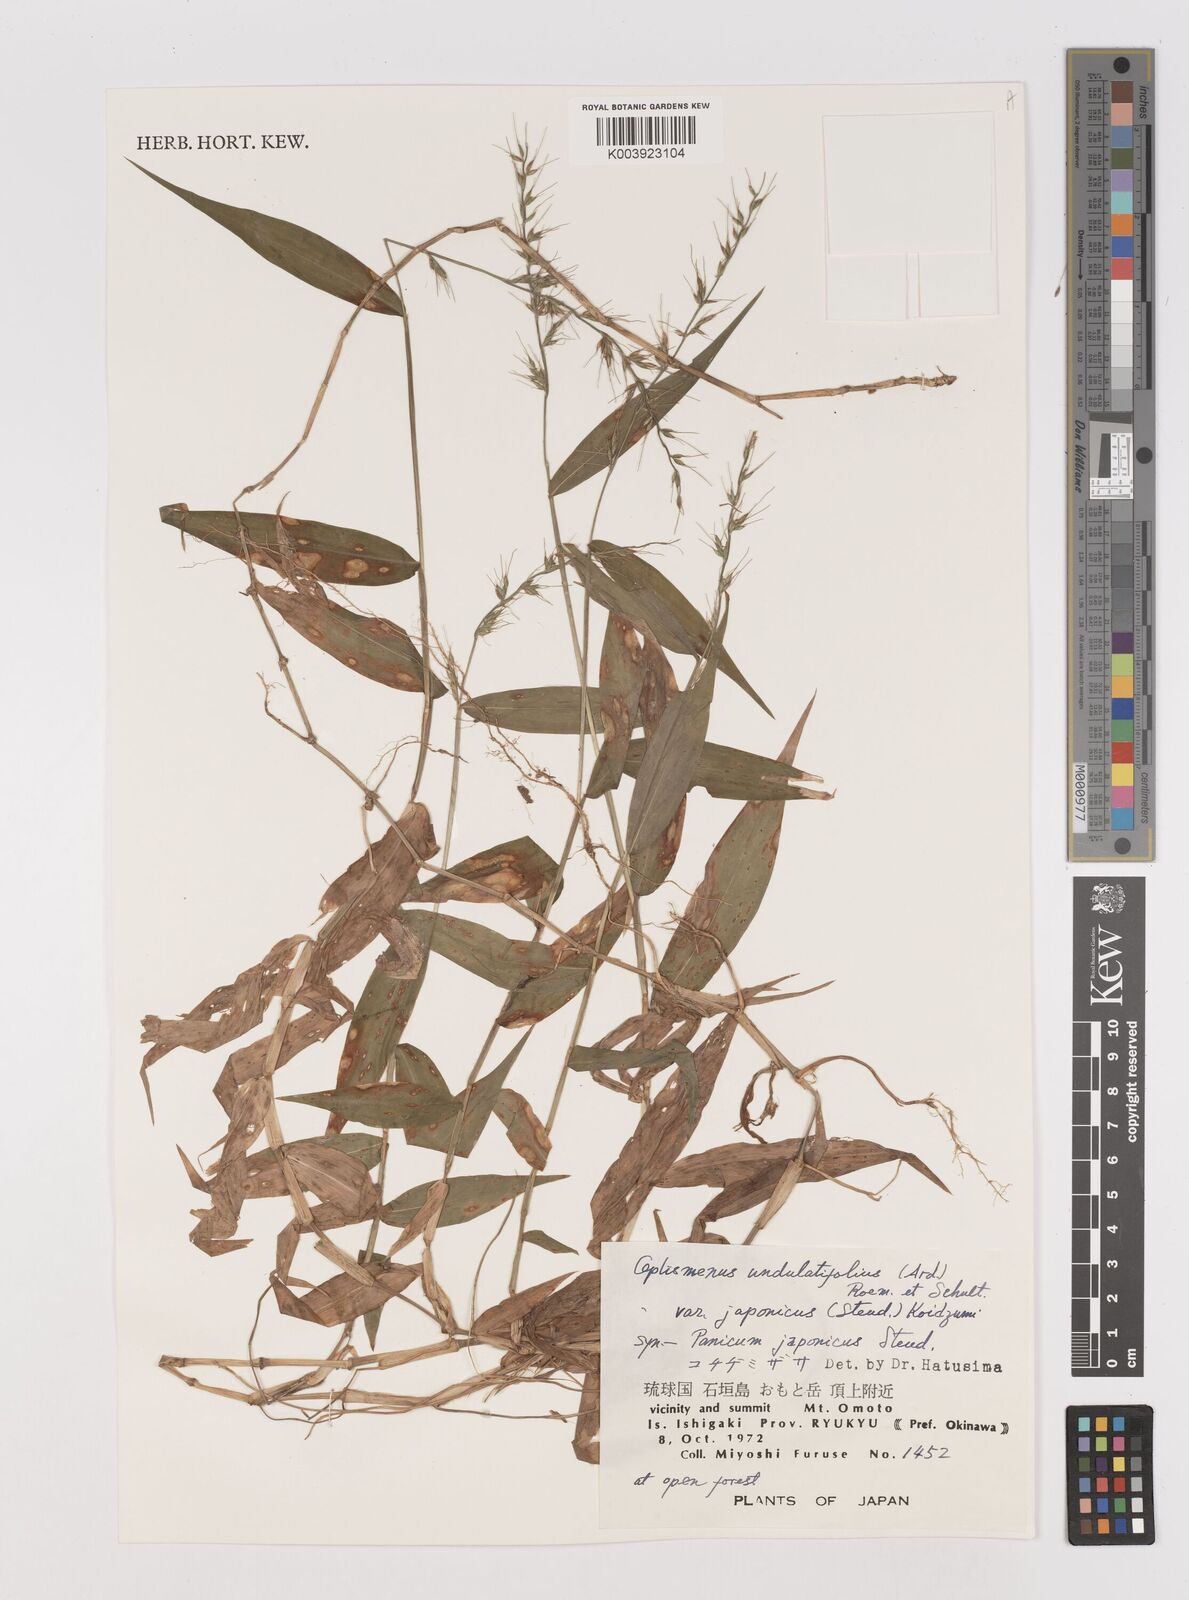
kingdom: Plantae
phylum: Tracheophyta
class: Liliopsida
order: Poales
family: Poaceae
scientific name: Poaceae
